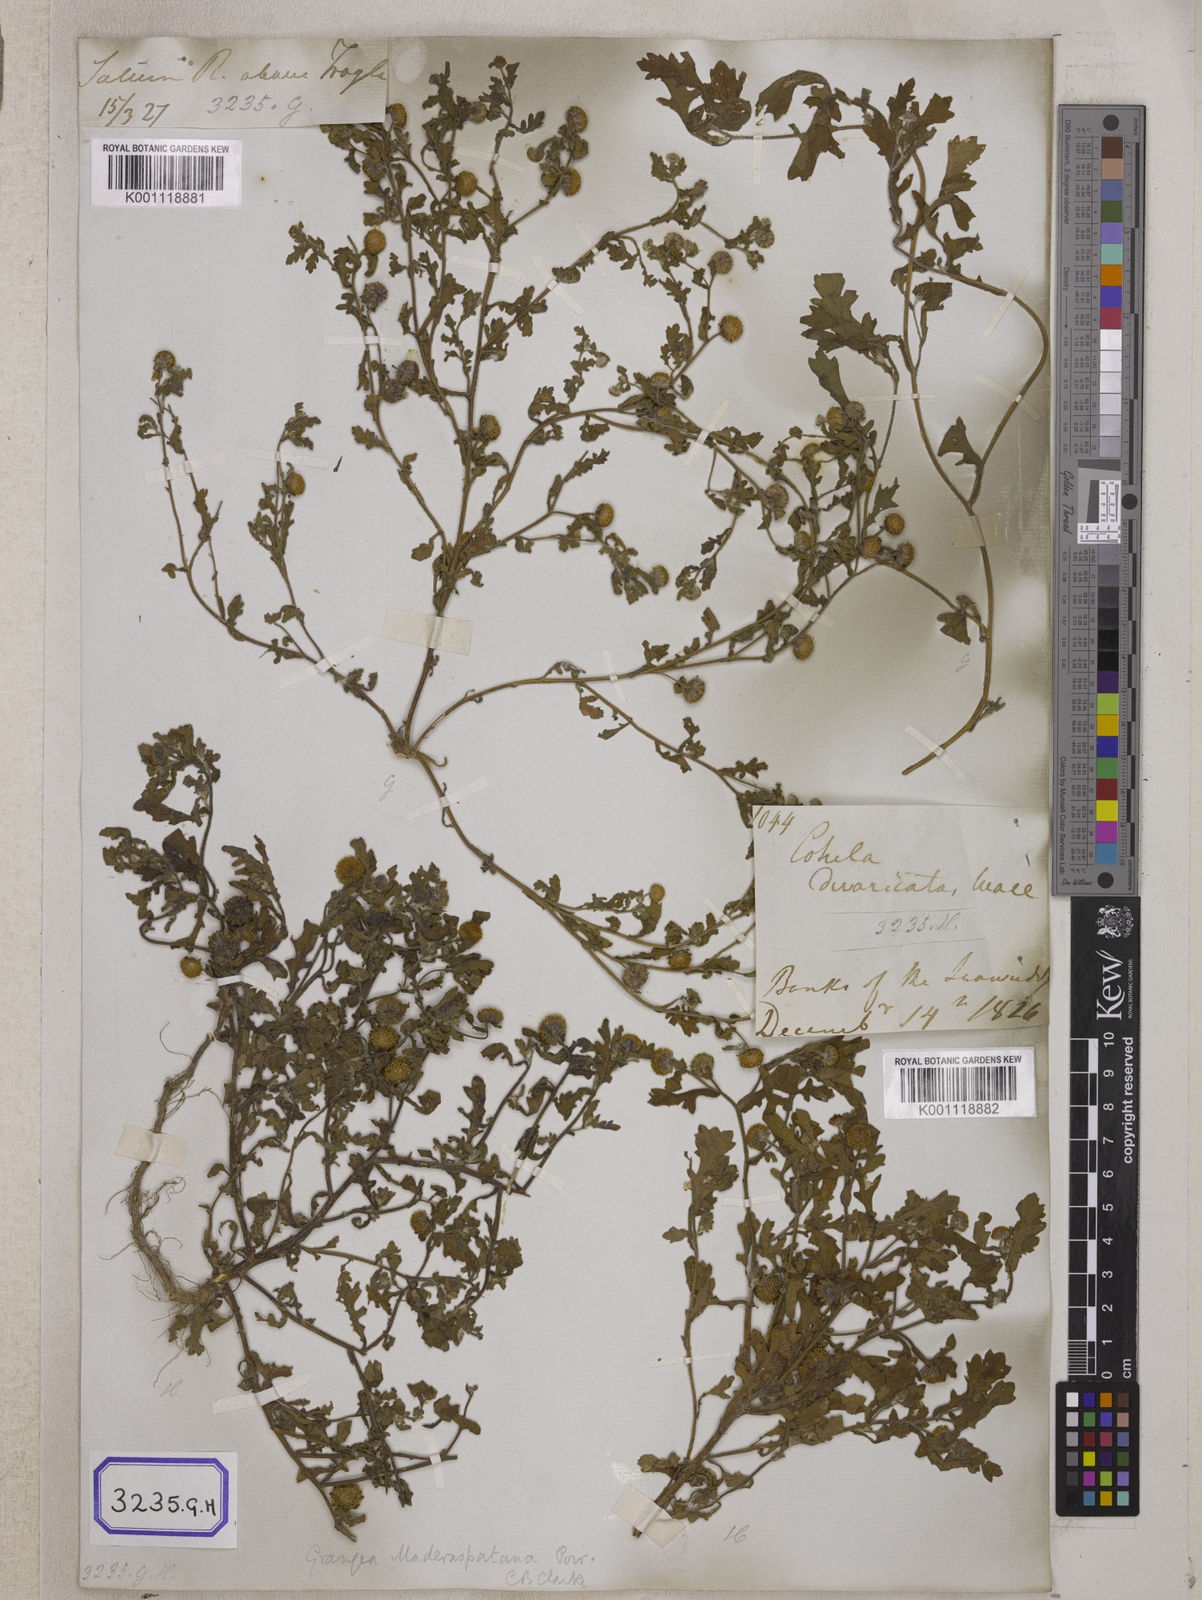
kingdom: Plantae
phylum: Tracheophyta
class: Magnoliopsida
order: Asterales
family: Asteraceae
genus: Grangea
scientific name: Grangea
